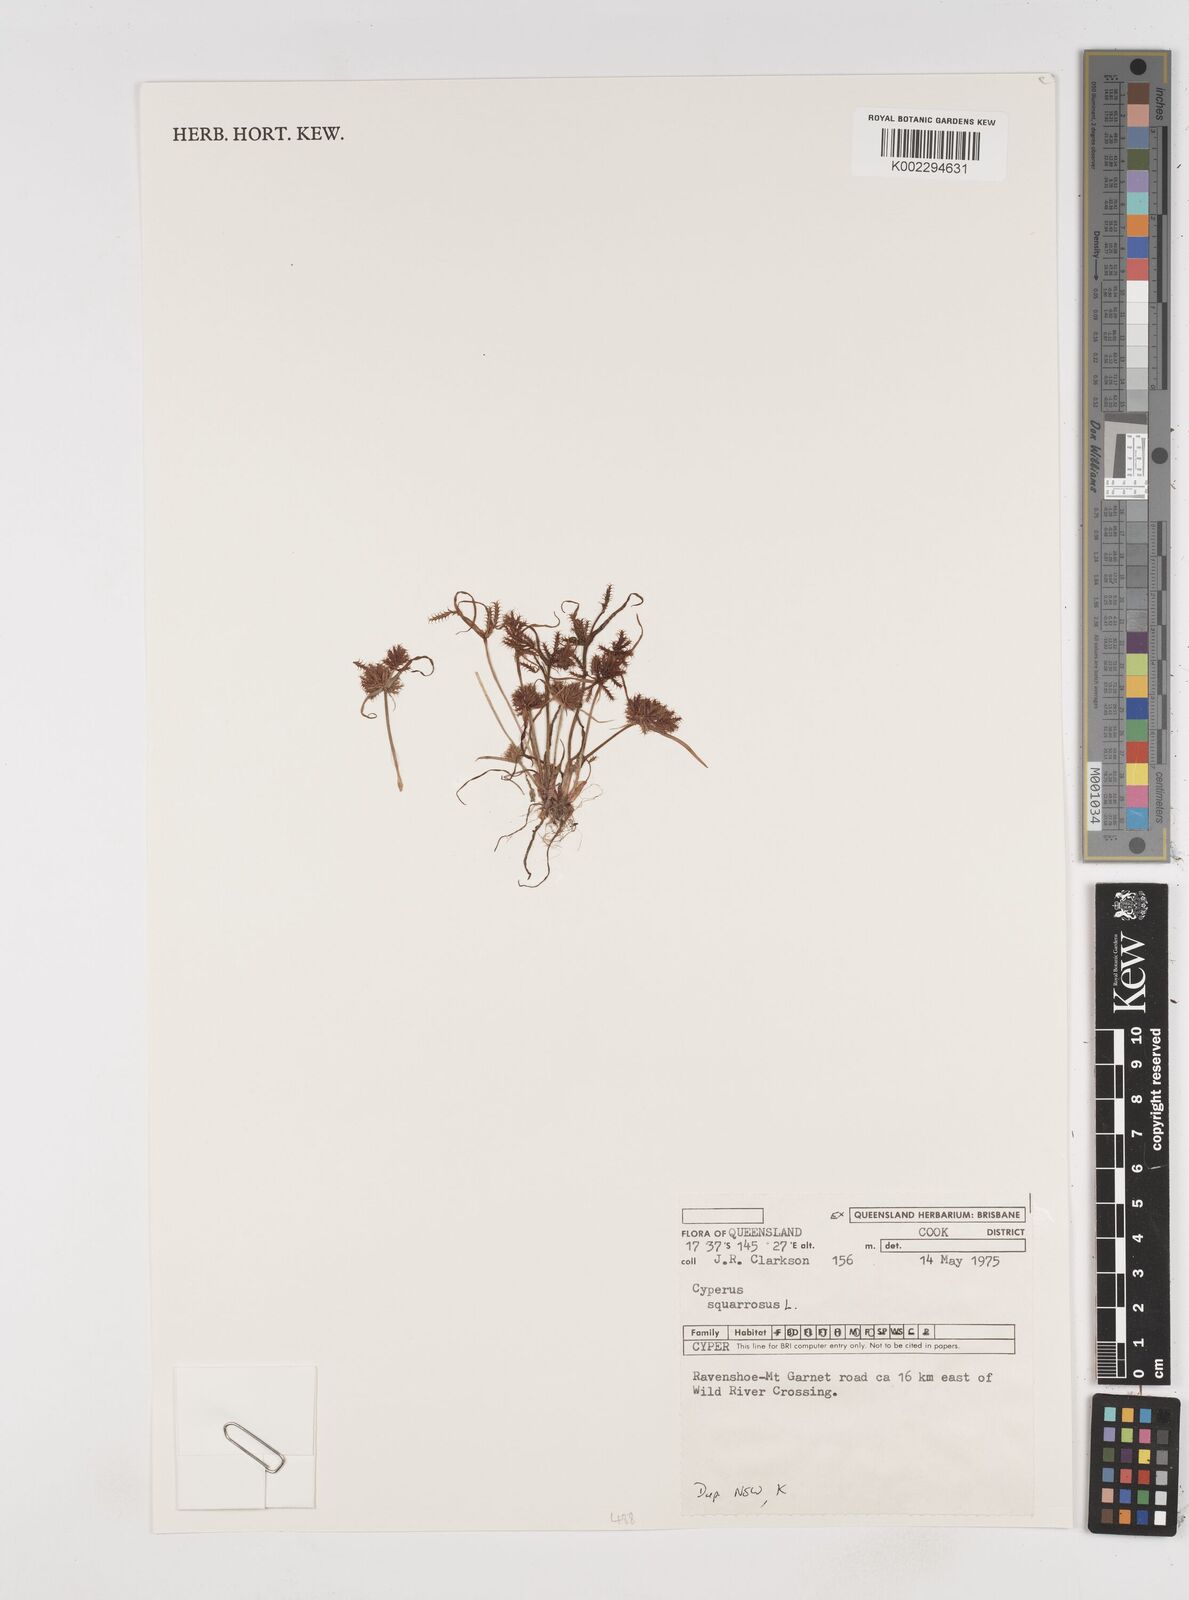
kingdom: Plantae
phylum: Tracheophyta
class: Liliopsida
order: Poales
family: Cyperaceae
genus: Cyperus
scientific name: Cyperus squarrosus
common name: Awned cyperus
